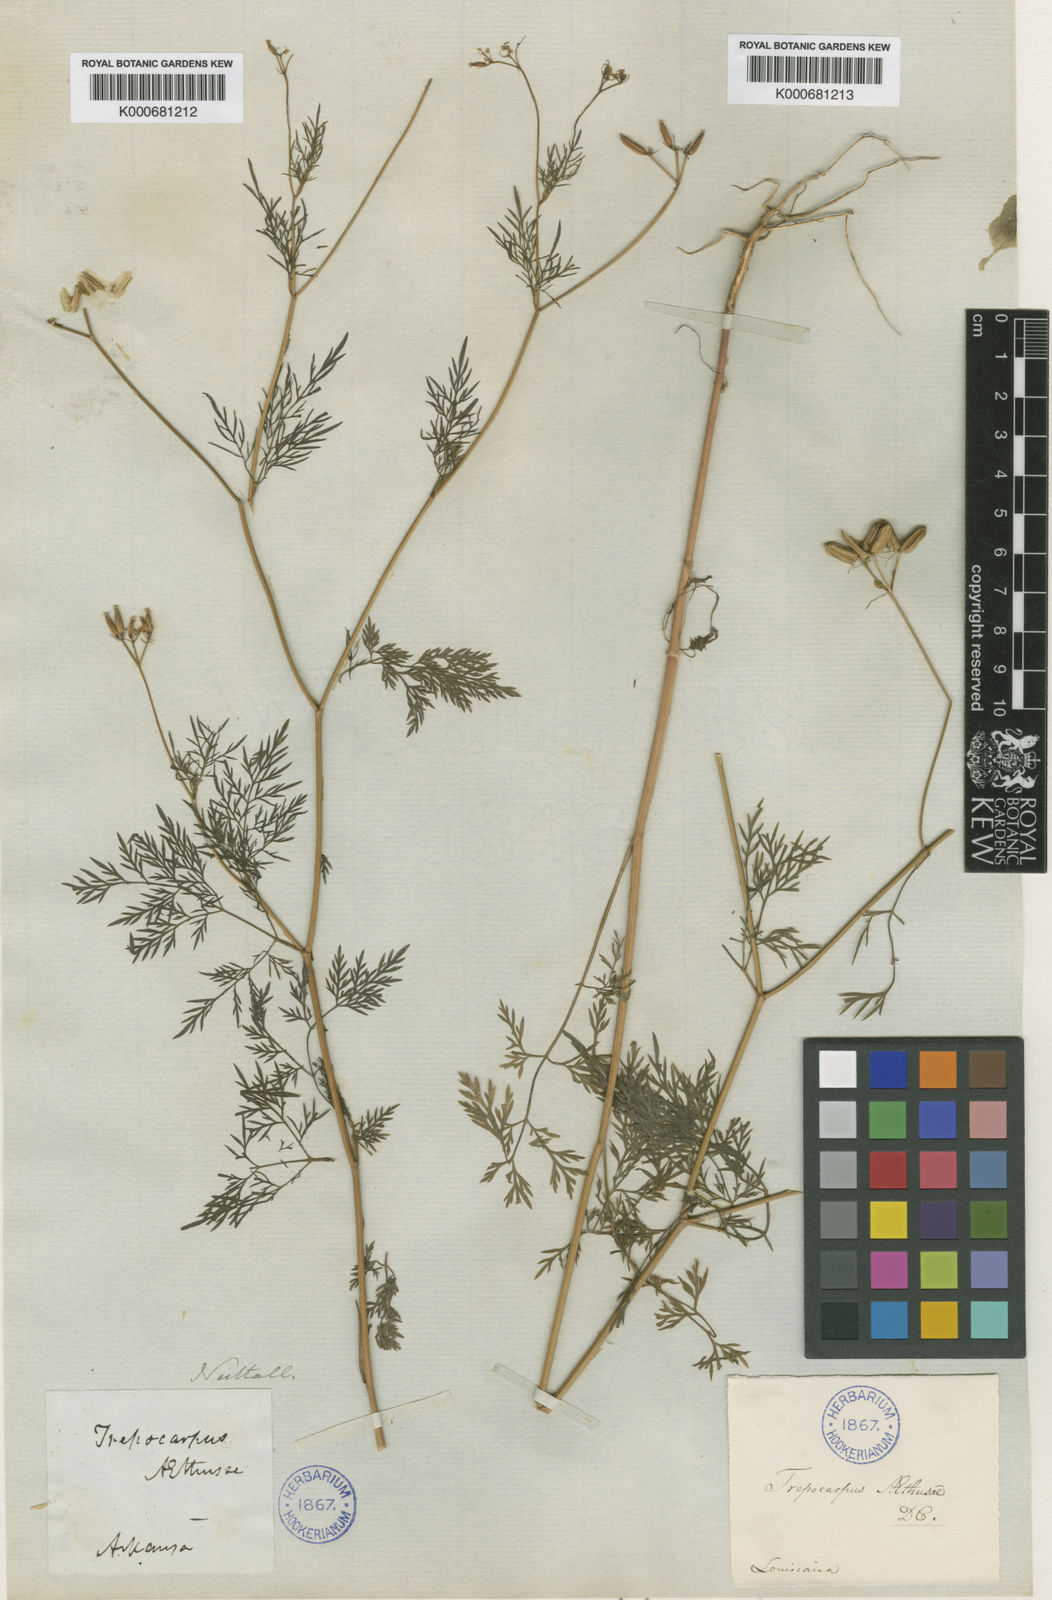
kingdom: Plantae
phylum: Tracheophyta
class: Magnoliopsida
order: Apiales
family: Apiaceae
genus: Trepocarpus
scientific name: Trepocarpus
